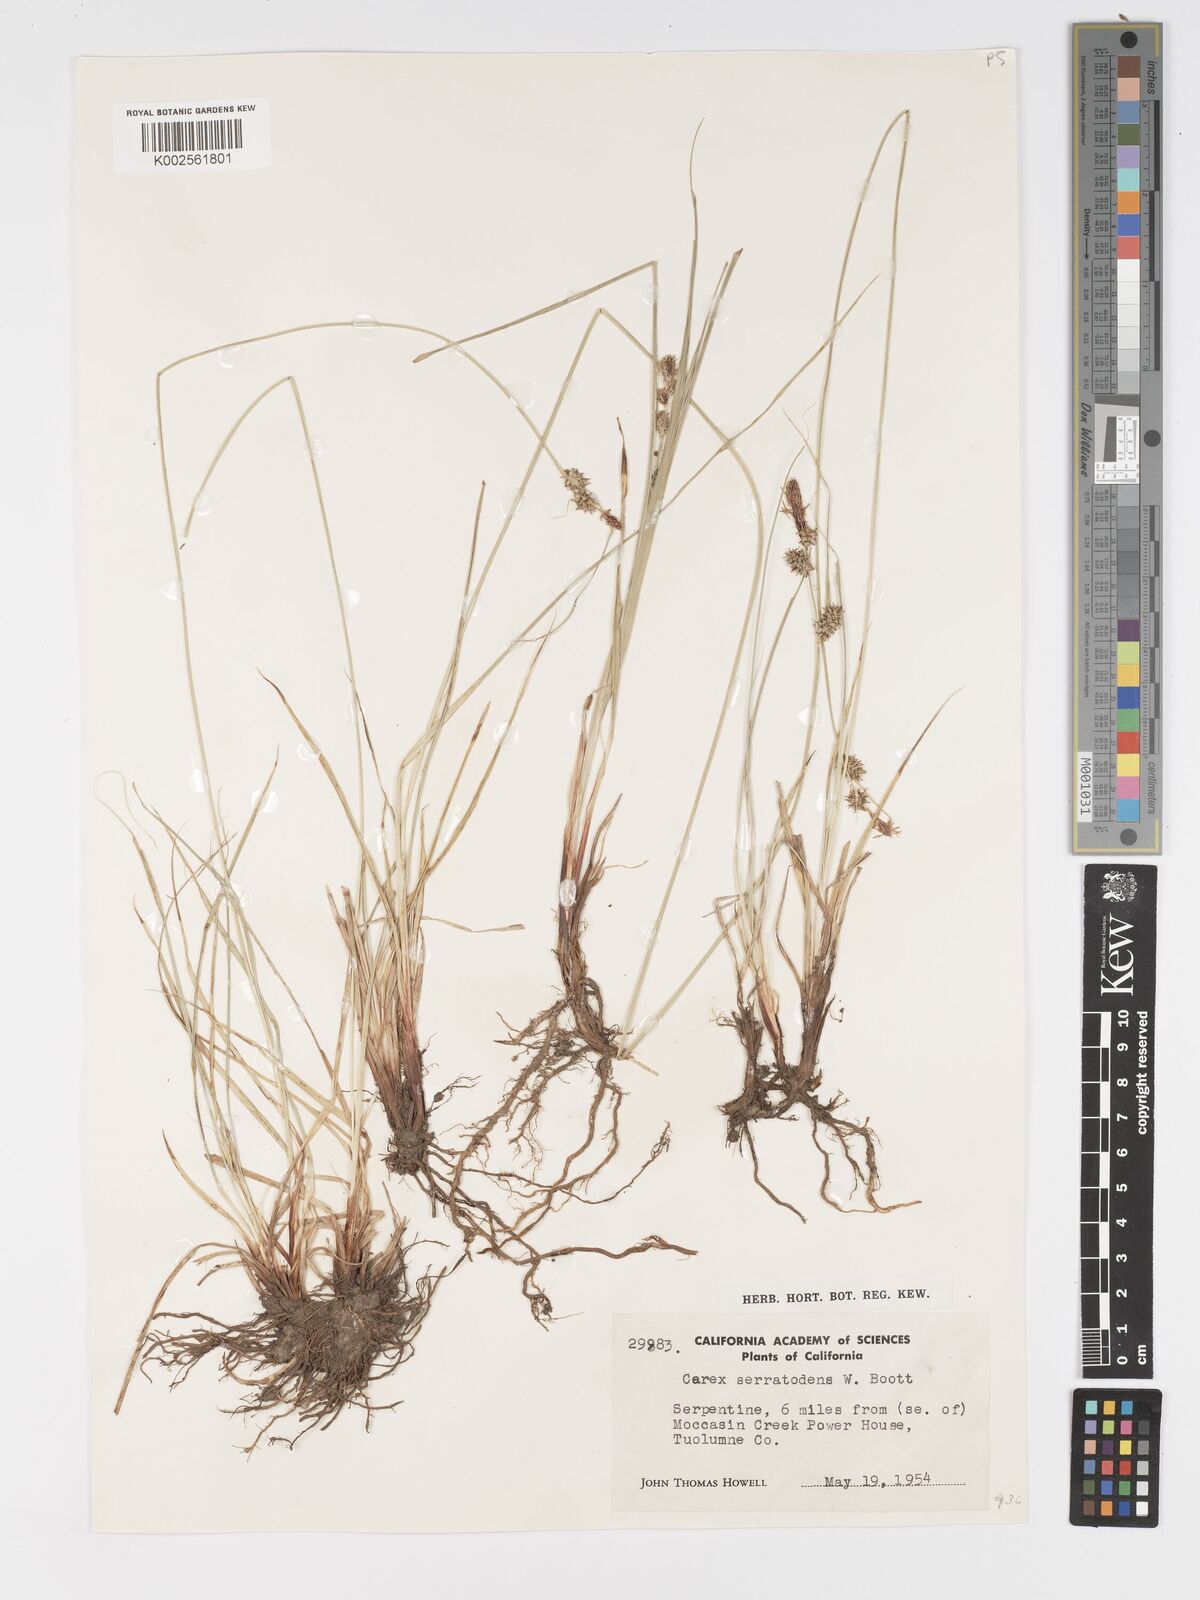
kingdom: Plantae
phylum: Tracheophyta
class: Liliopsida
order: Poales
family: Cyperaceae
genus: Carex
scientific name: Carex serratodens
